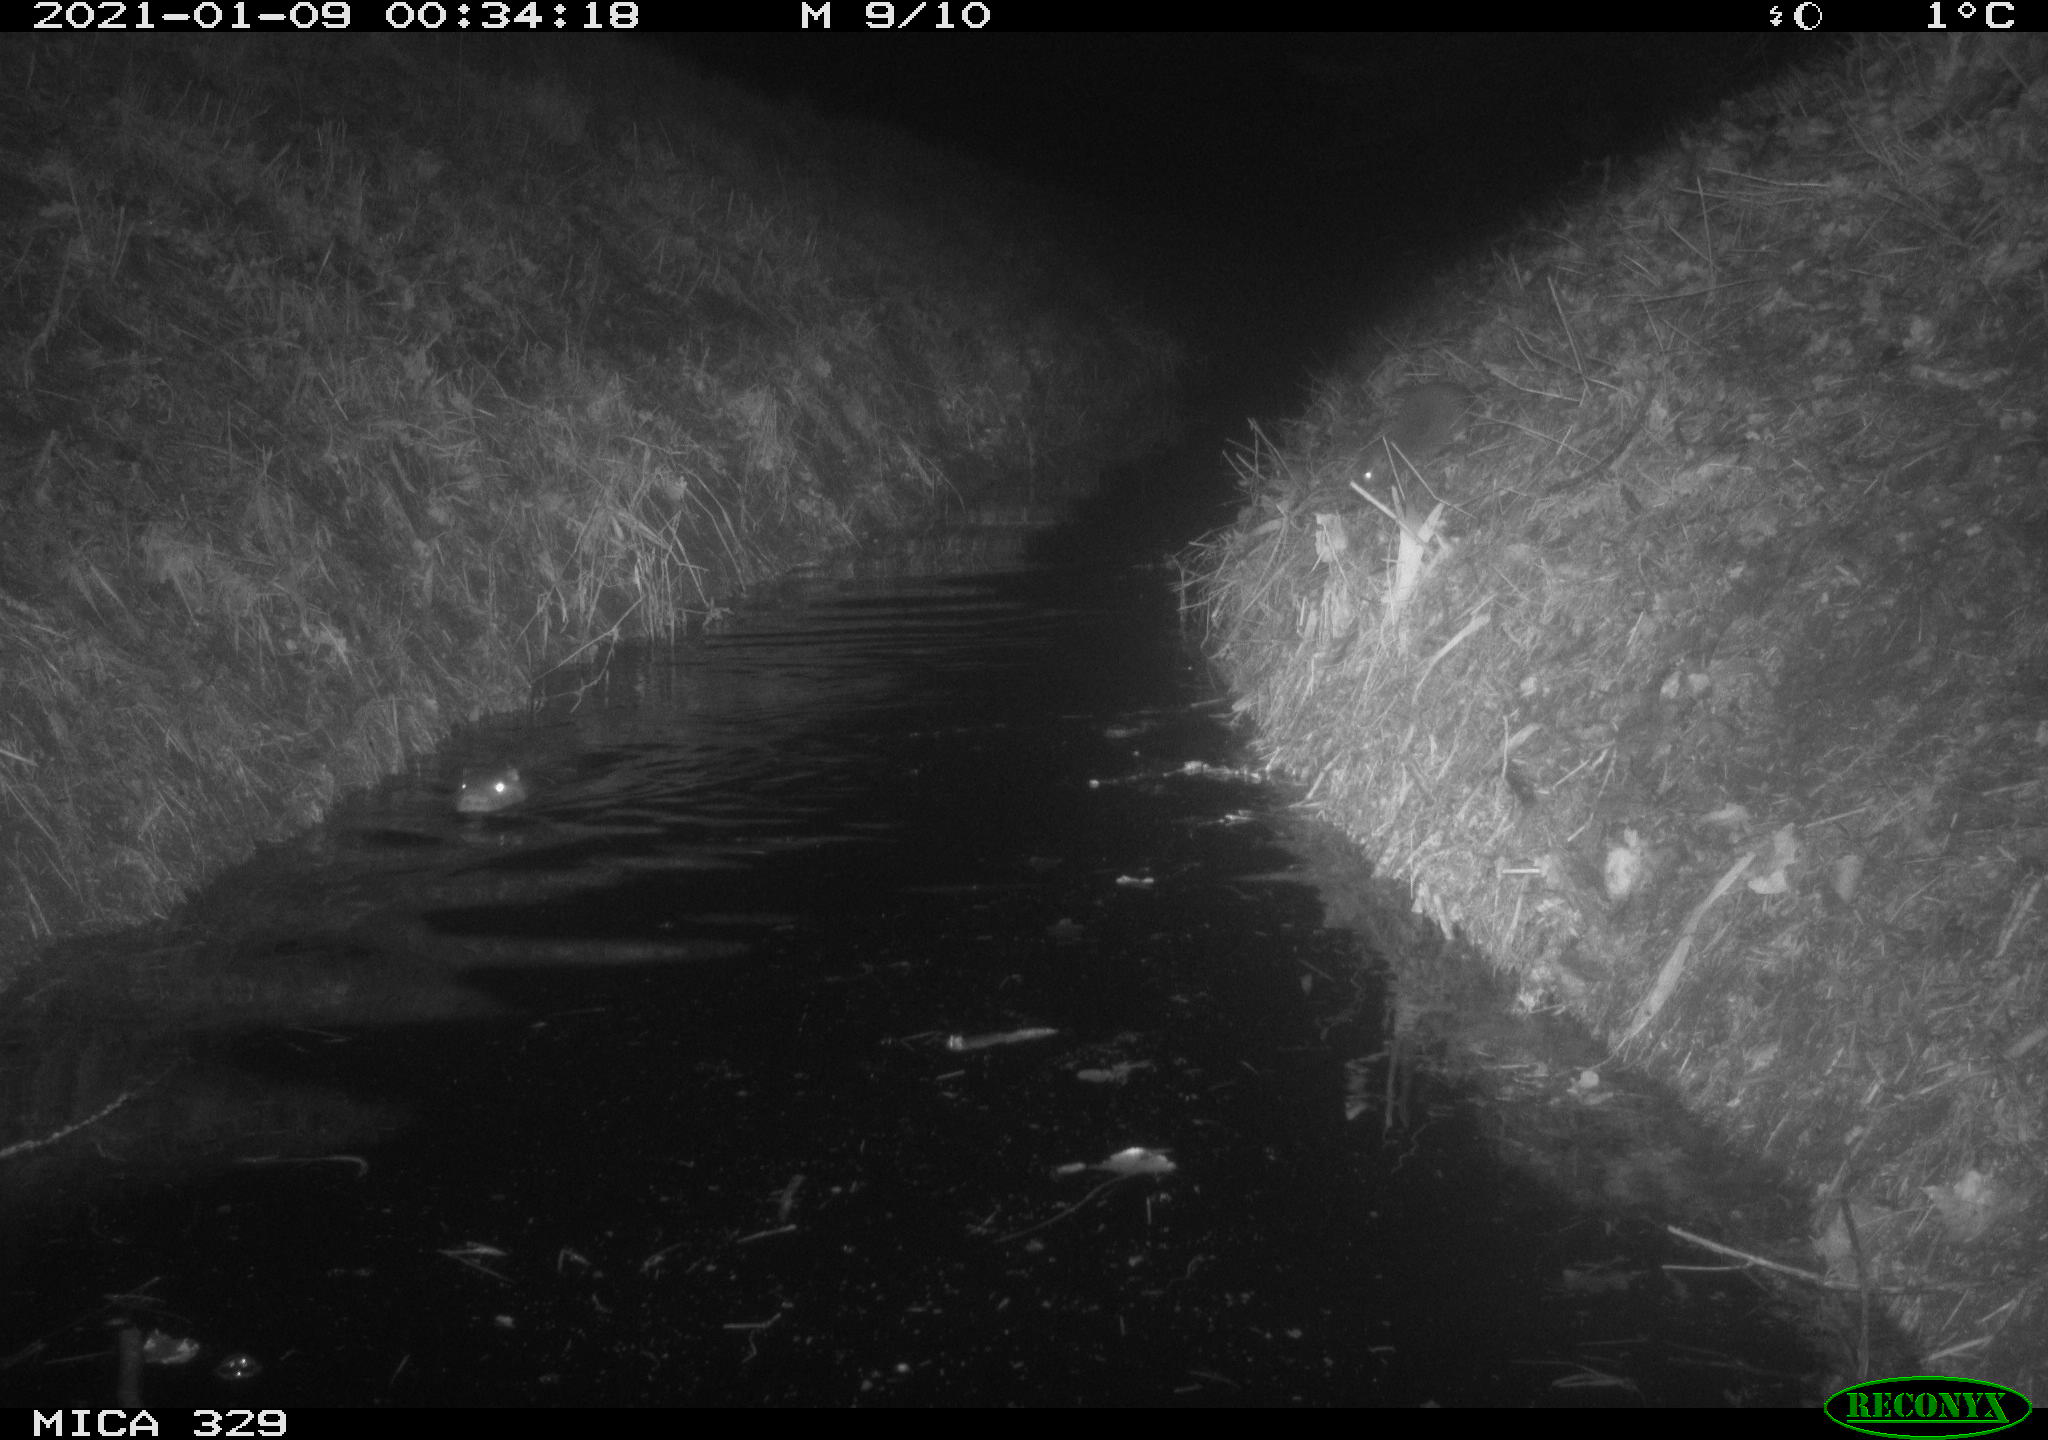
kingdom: Animalia
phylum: Chordata
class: Mammalia
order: Rodentia
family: Myocastoridae
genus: Myocastor
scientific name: Myocastor coypus
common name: Coypu
